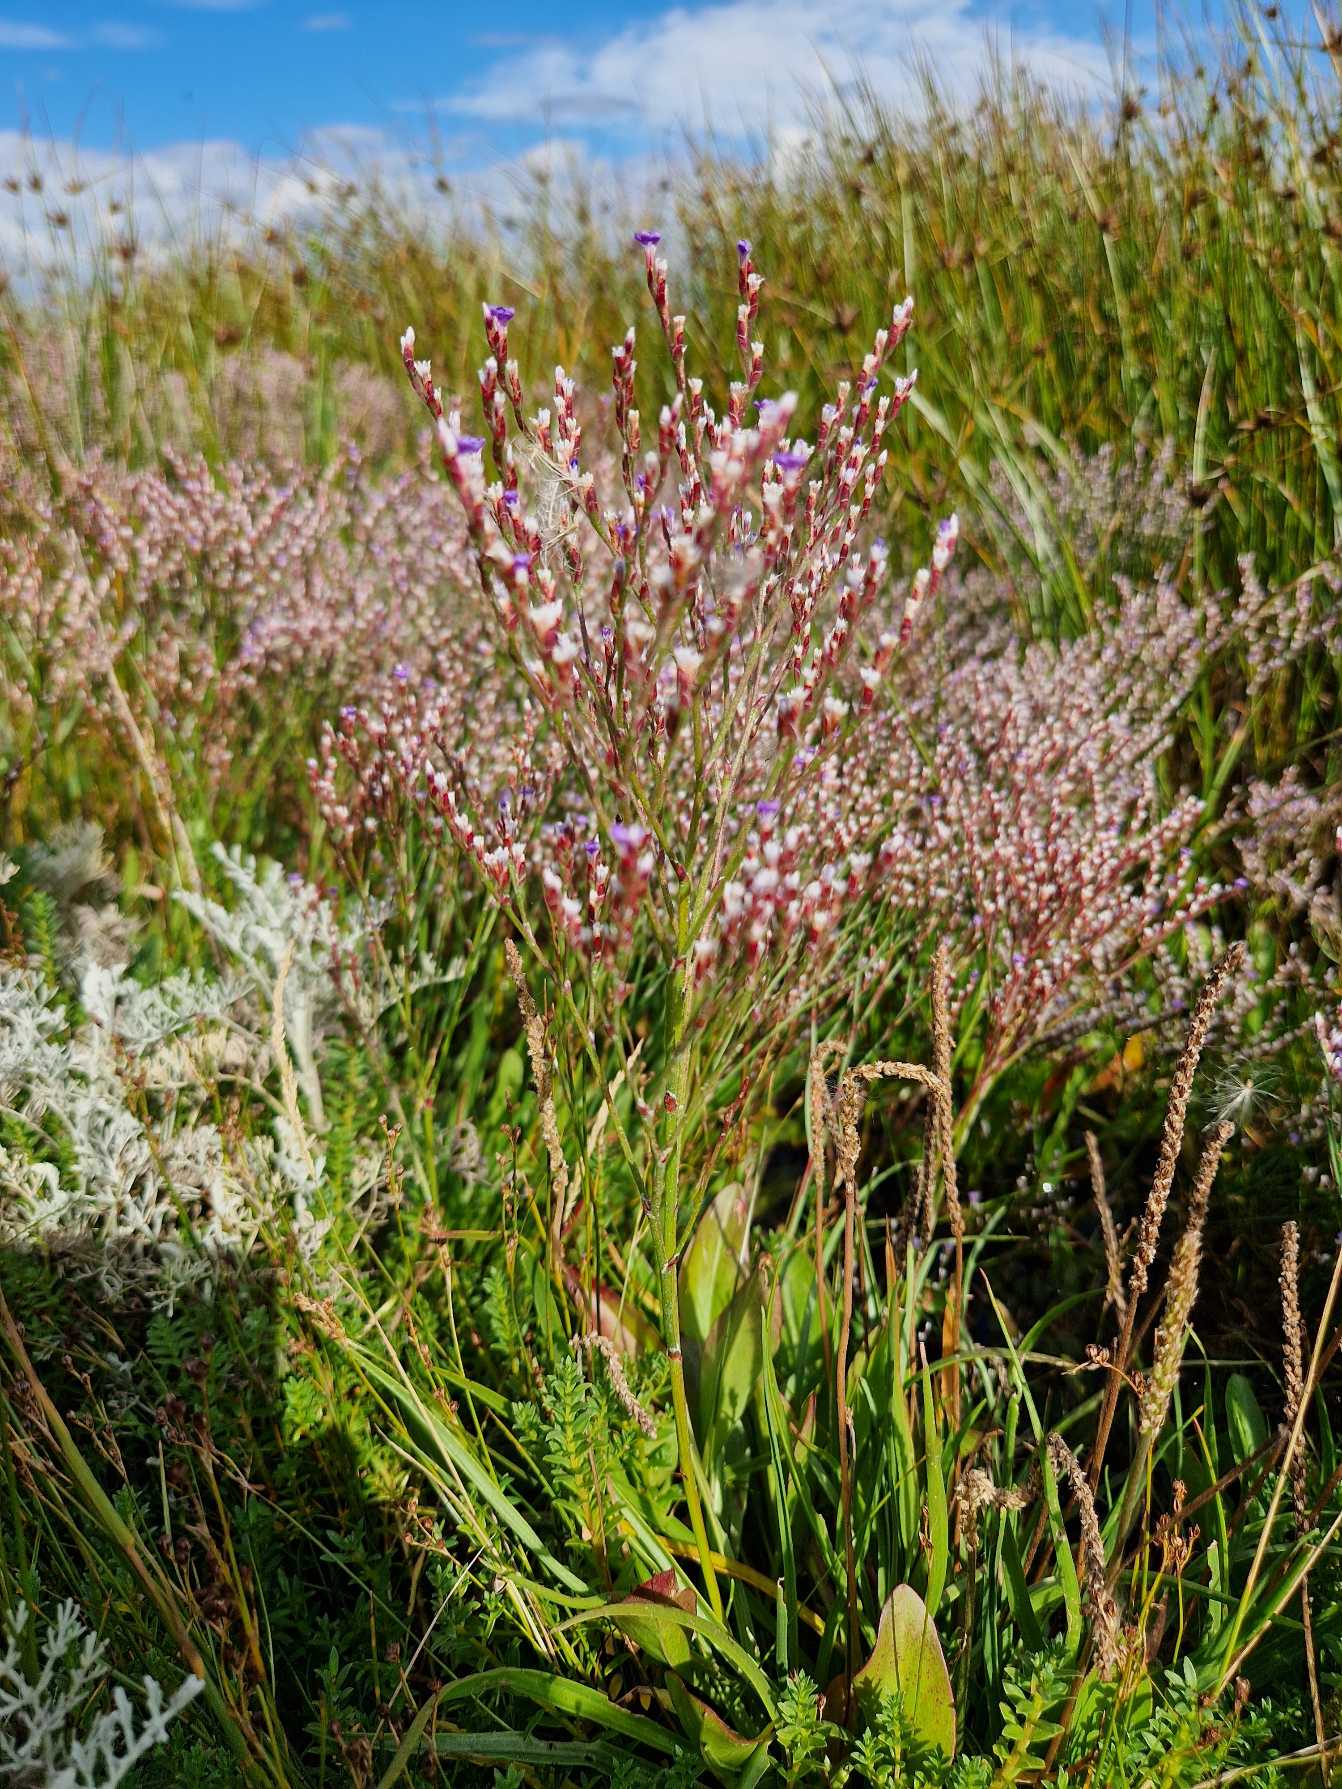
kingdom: Plantae
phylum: Tracheophyta
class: Magnoliopsida
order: Caryophyllales
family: Plumbaginaceae
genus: Limonium
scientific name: Limonium humile
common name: Lav hindebæger
